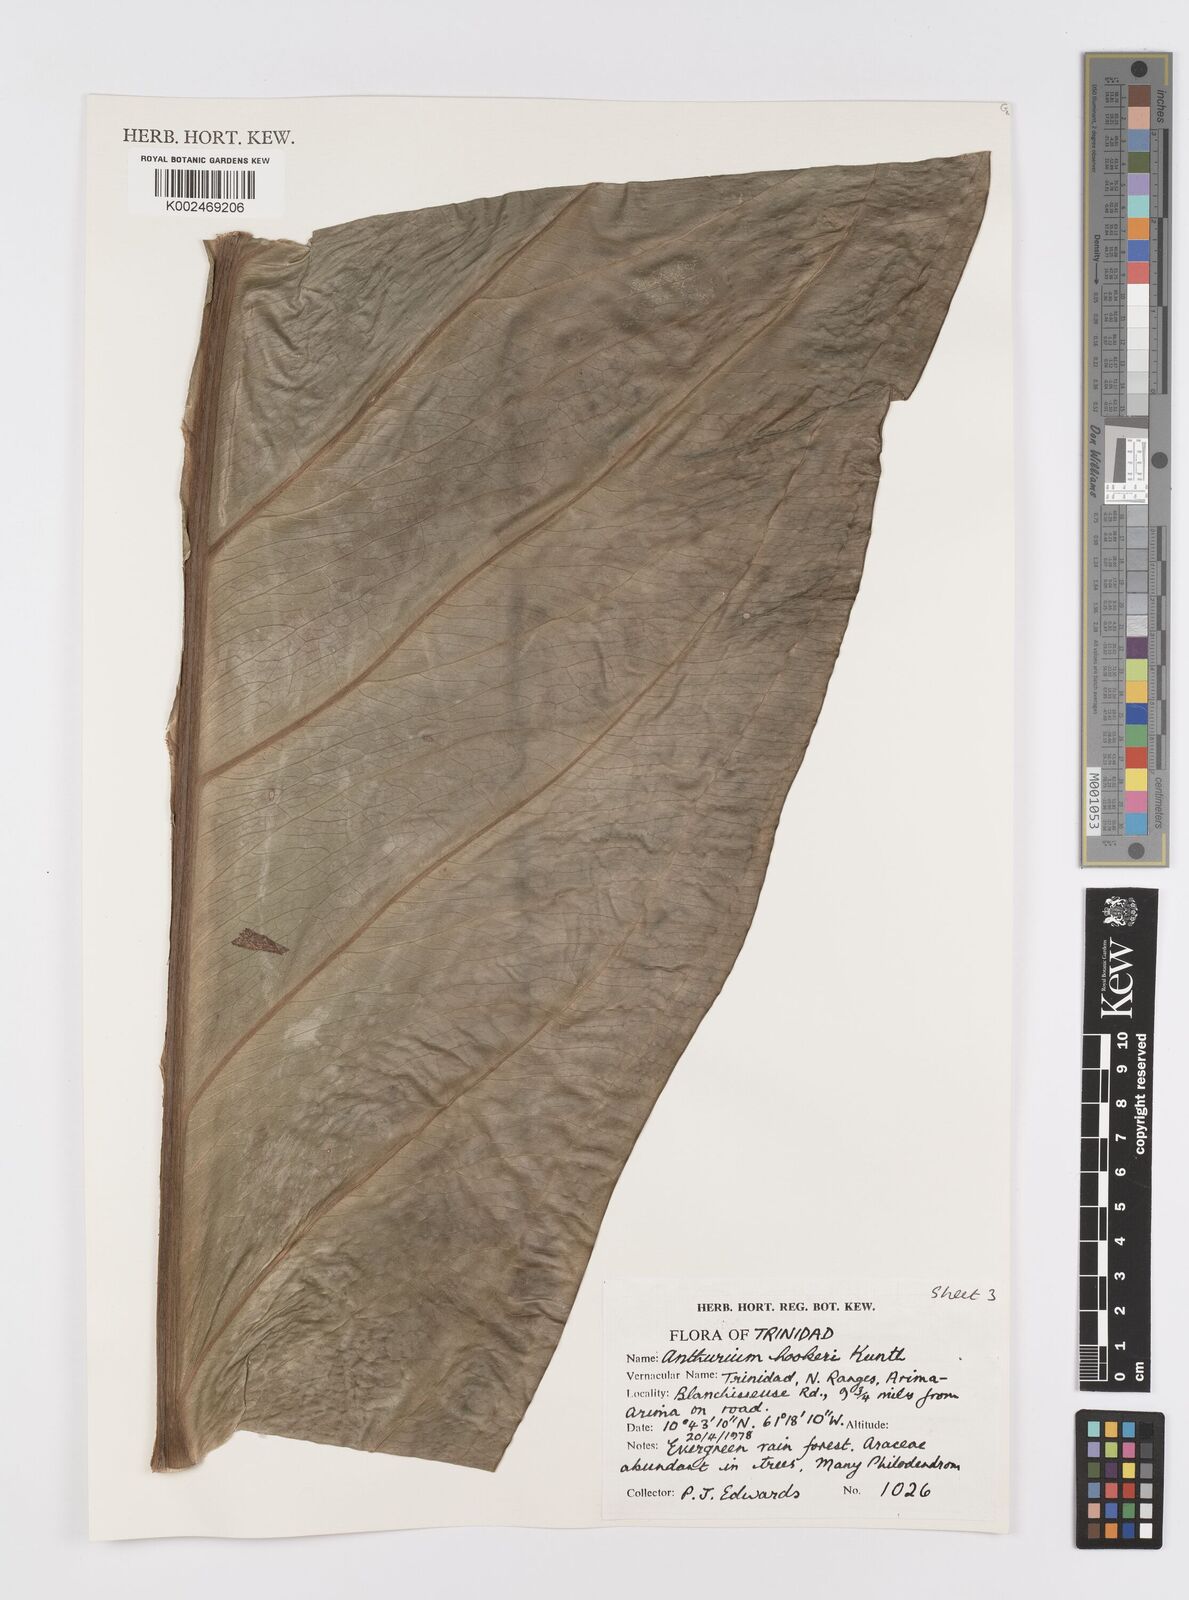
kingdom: Plantae
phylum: Tracheophyta
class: Liliopsida
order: Alismatales
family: Araceae
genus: Anthurium
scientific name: Anthurium hookeri
